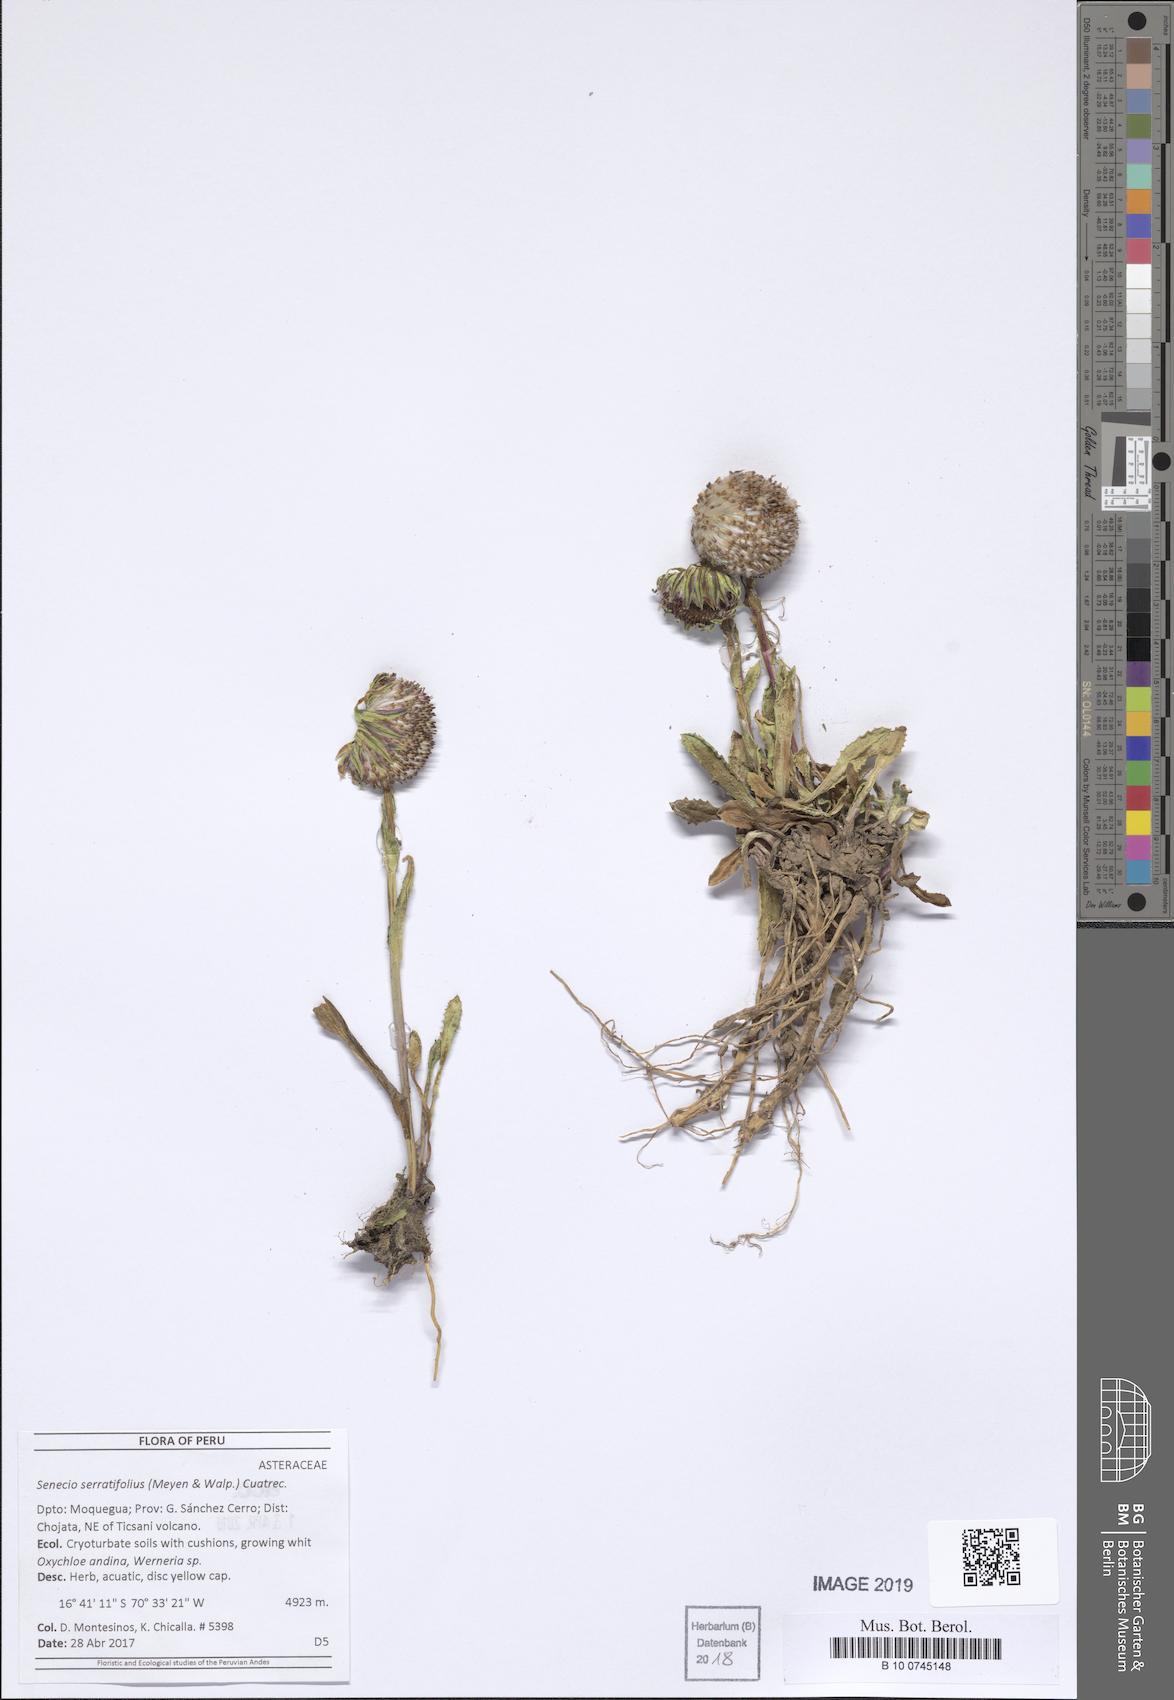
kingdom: Plantae
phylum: Tracheophyta
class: Magnoliopsida
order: Asterales
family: Asteraceae
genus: Senecio
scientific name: Senecio serratifolius
